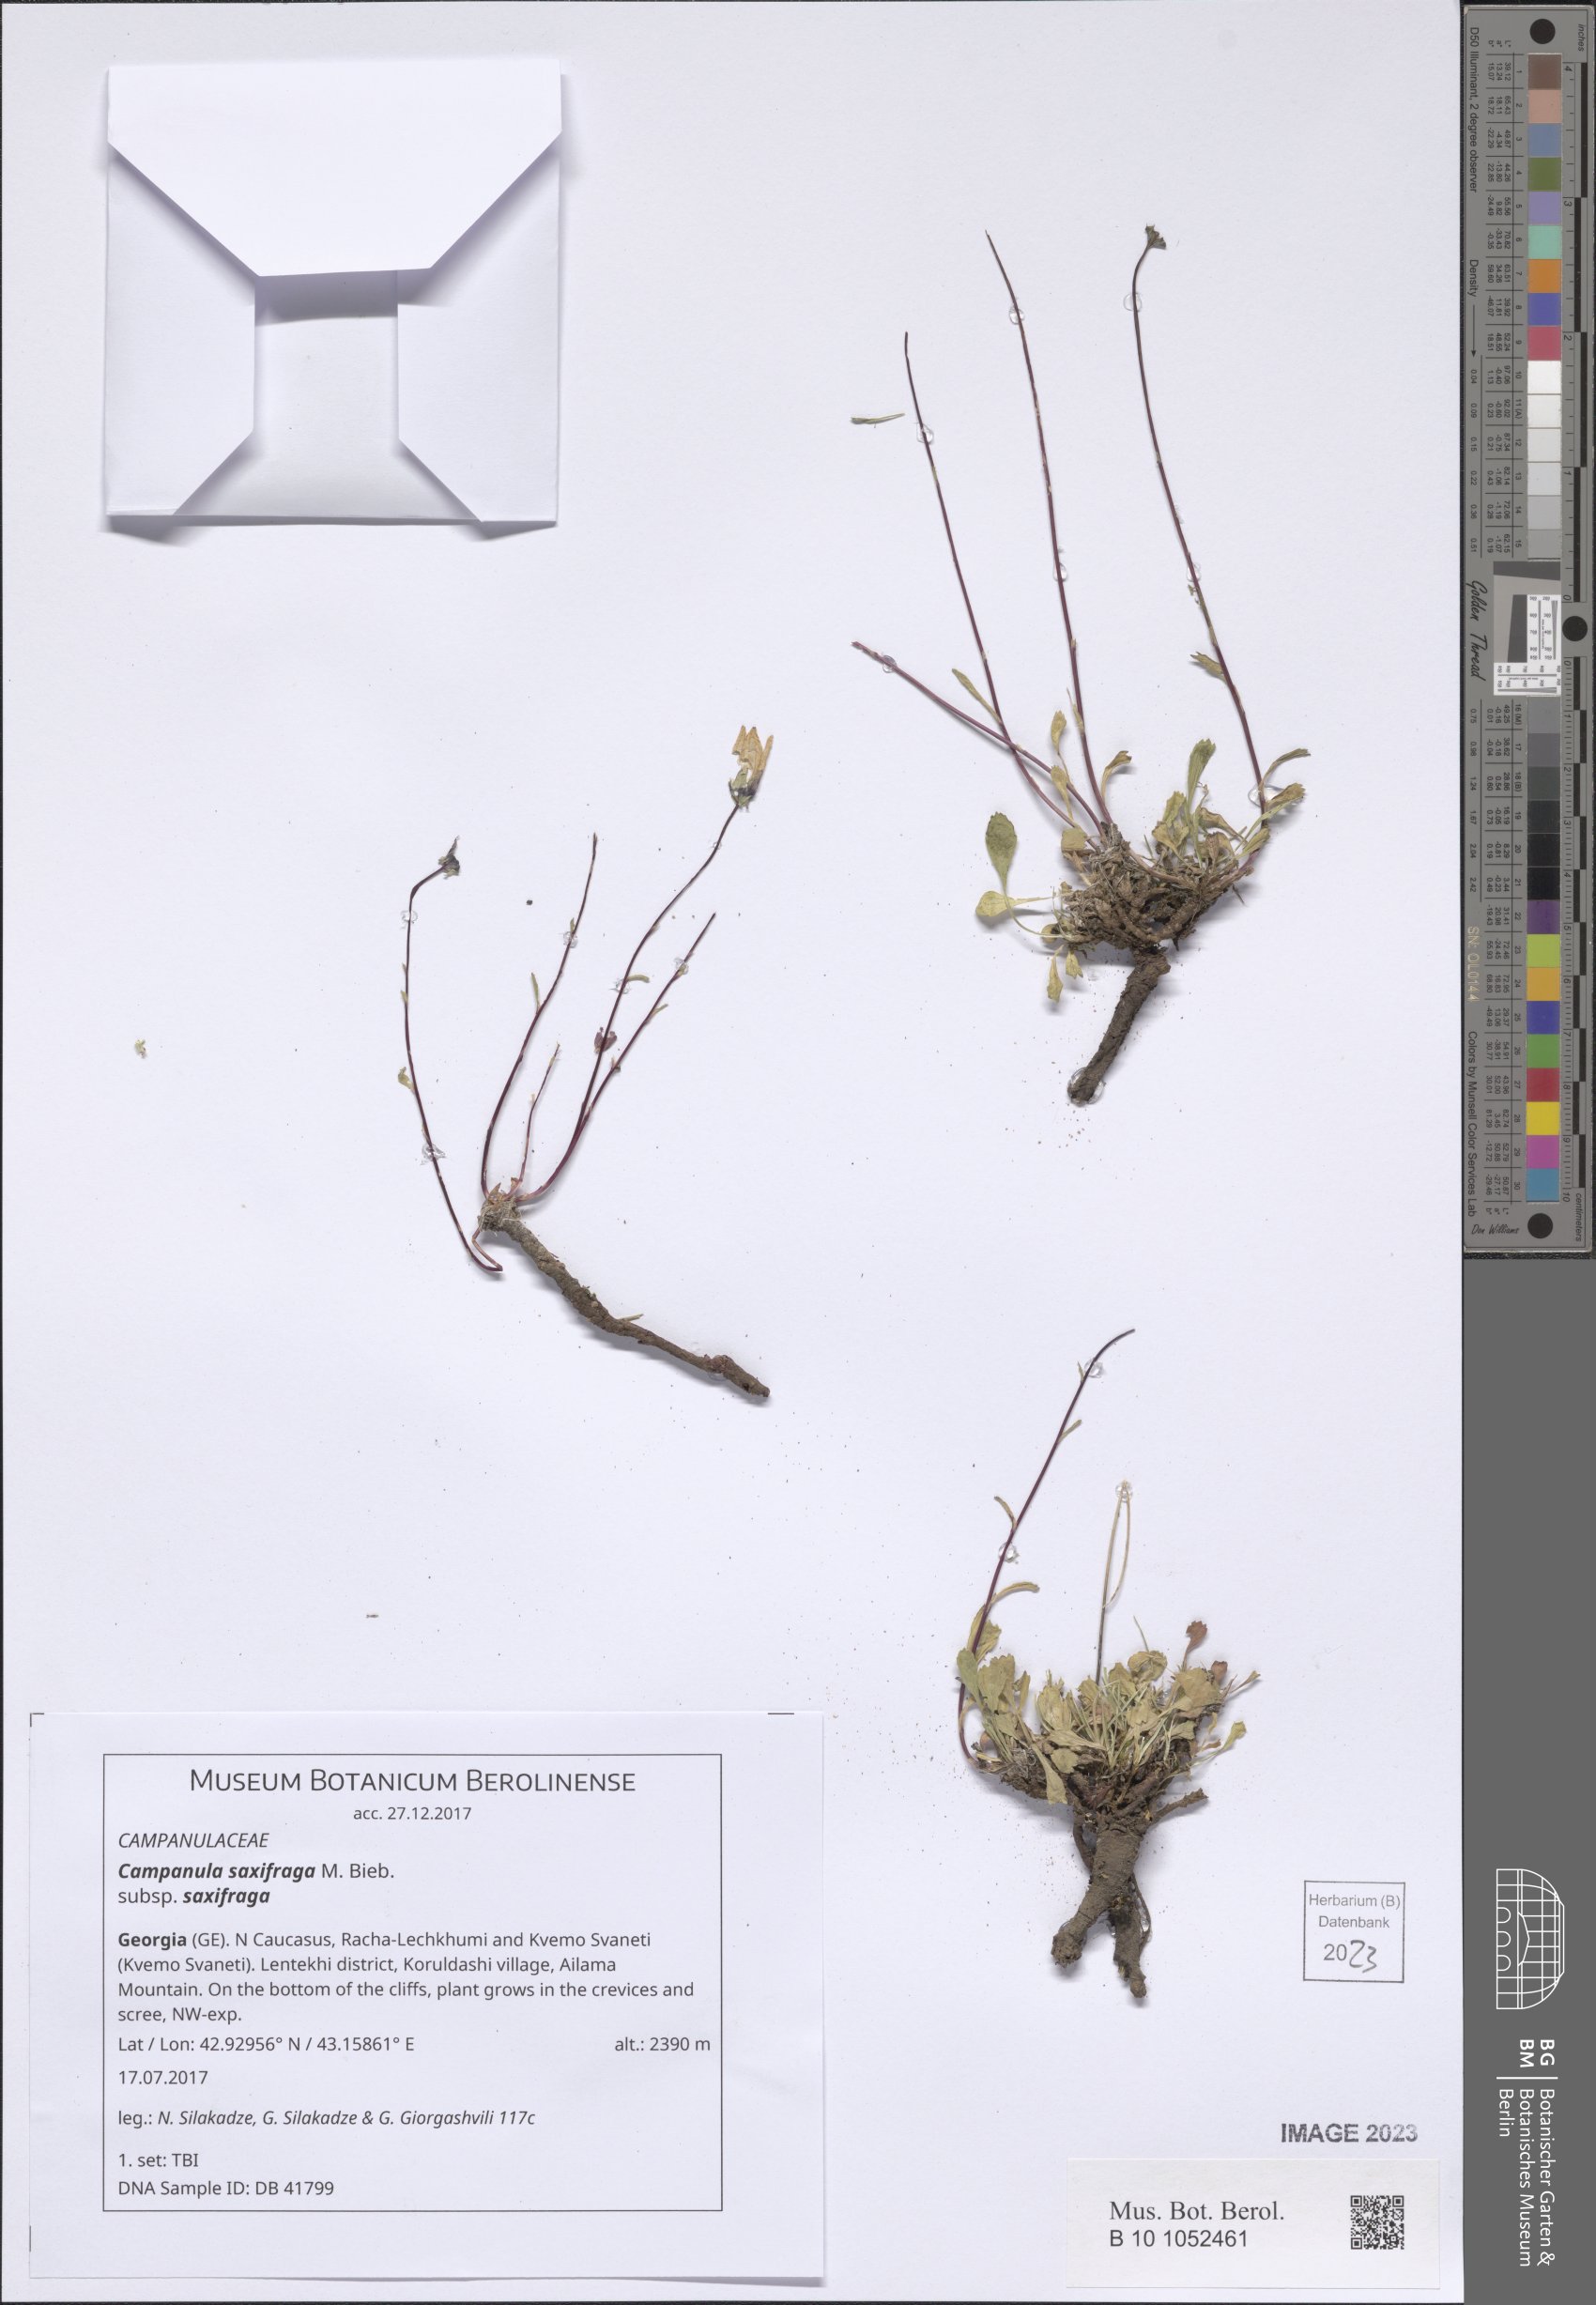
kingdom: Plantae
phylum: Tracheophyta
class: Magnoliopsida
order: Asterales
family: Campanulaceae
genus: Campanula
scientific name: Campanula saxifraga
